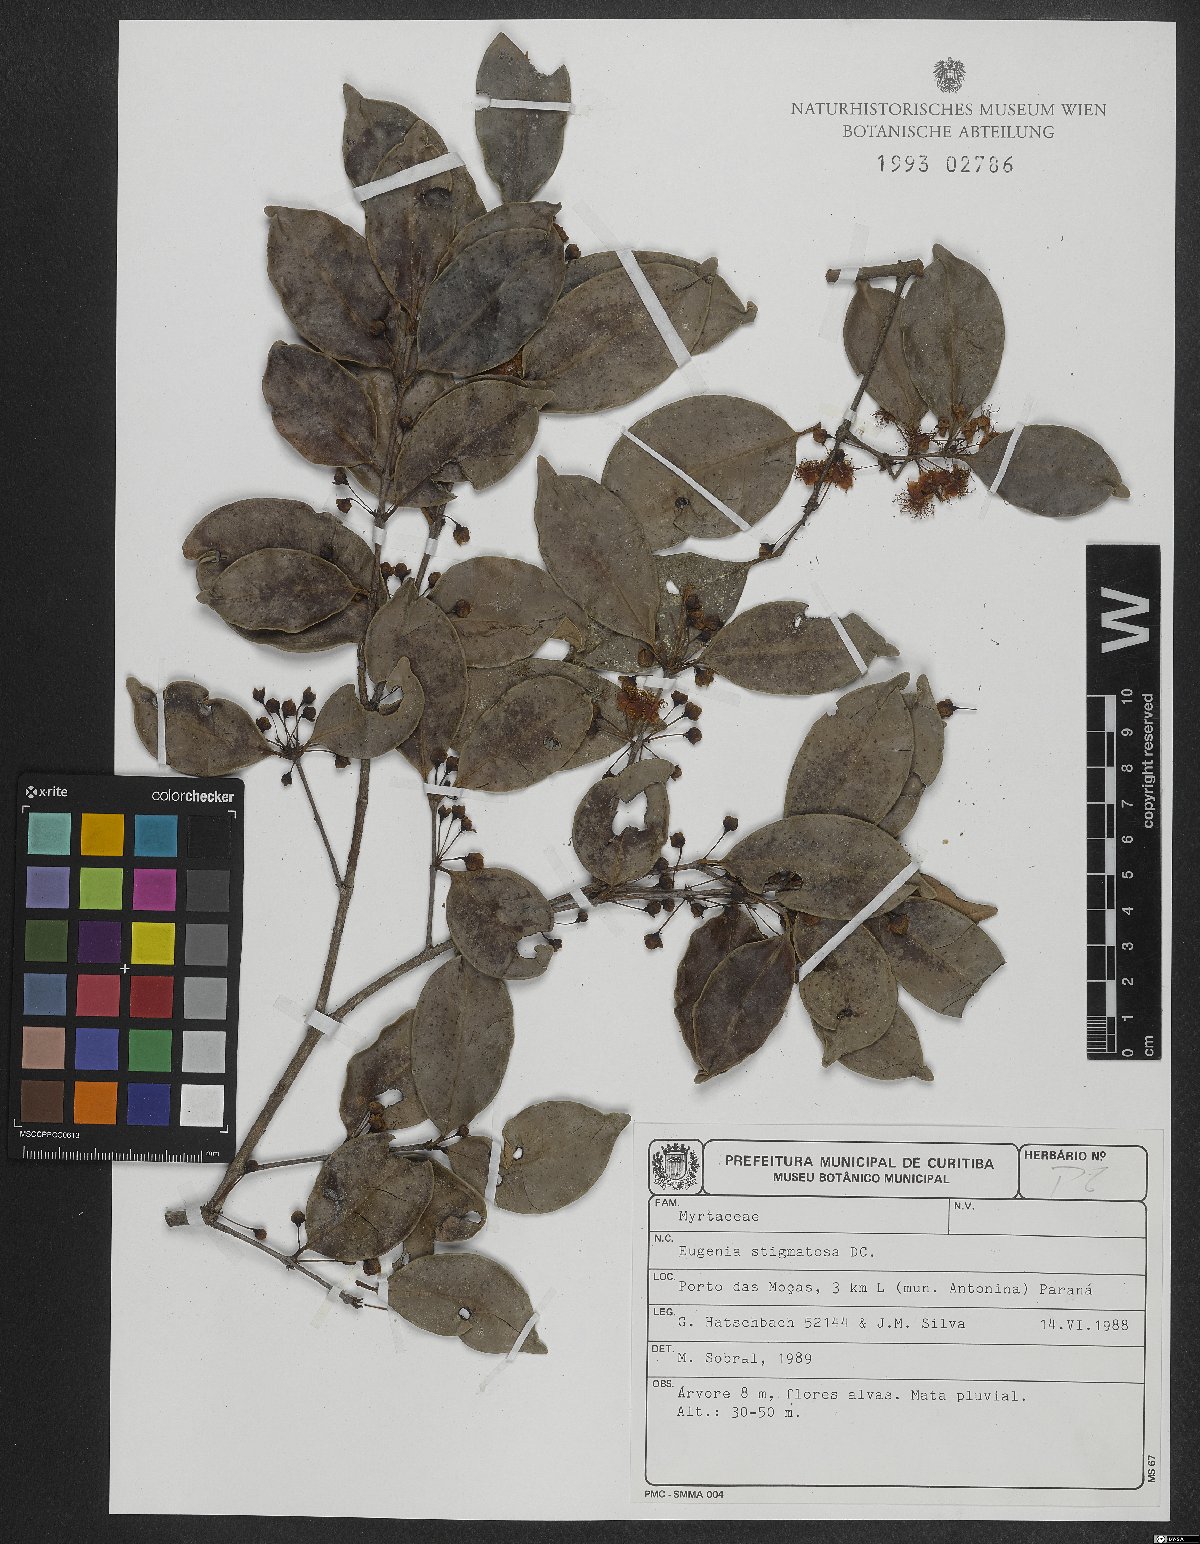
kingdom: Plantae
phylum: Tracheophyta
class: Magnoliopsida
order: Myrtales
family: Myrtaceae
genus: Eugenia
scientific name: Eugenia stigmatosa
